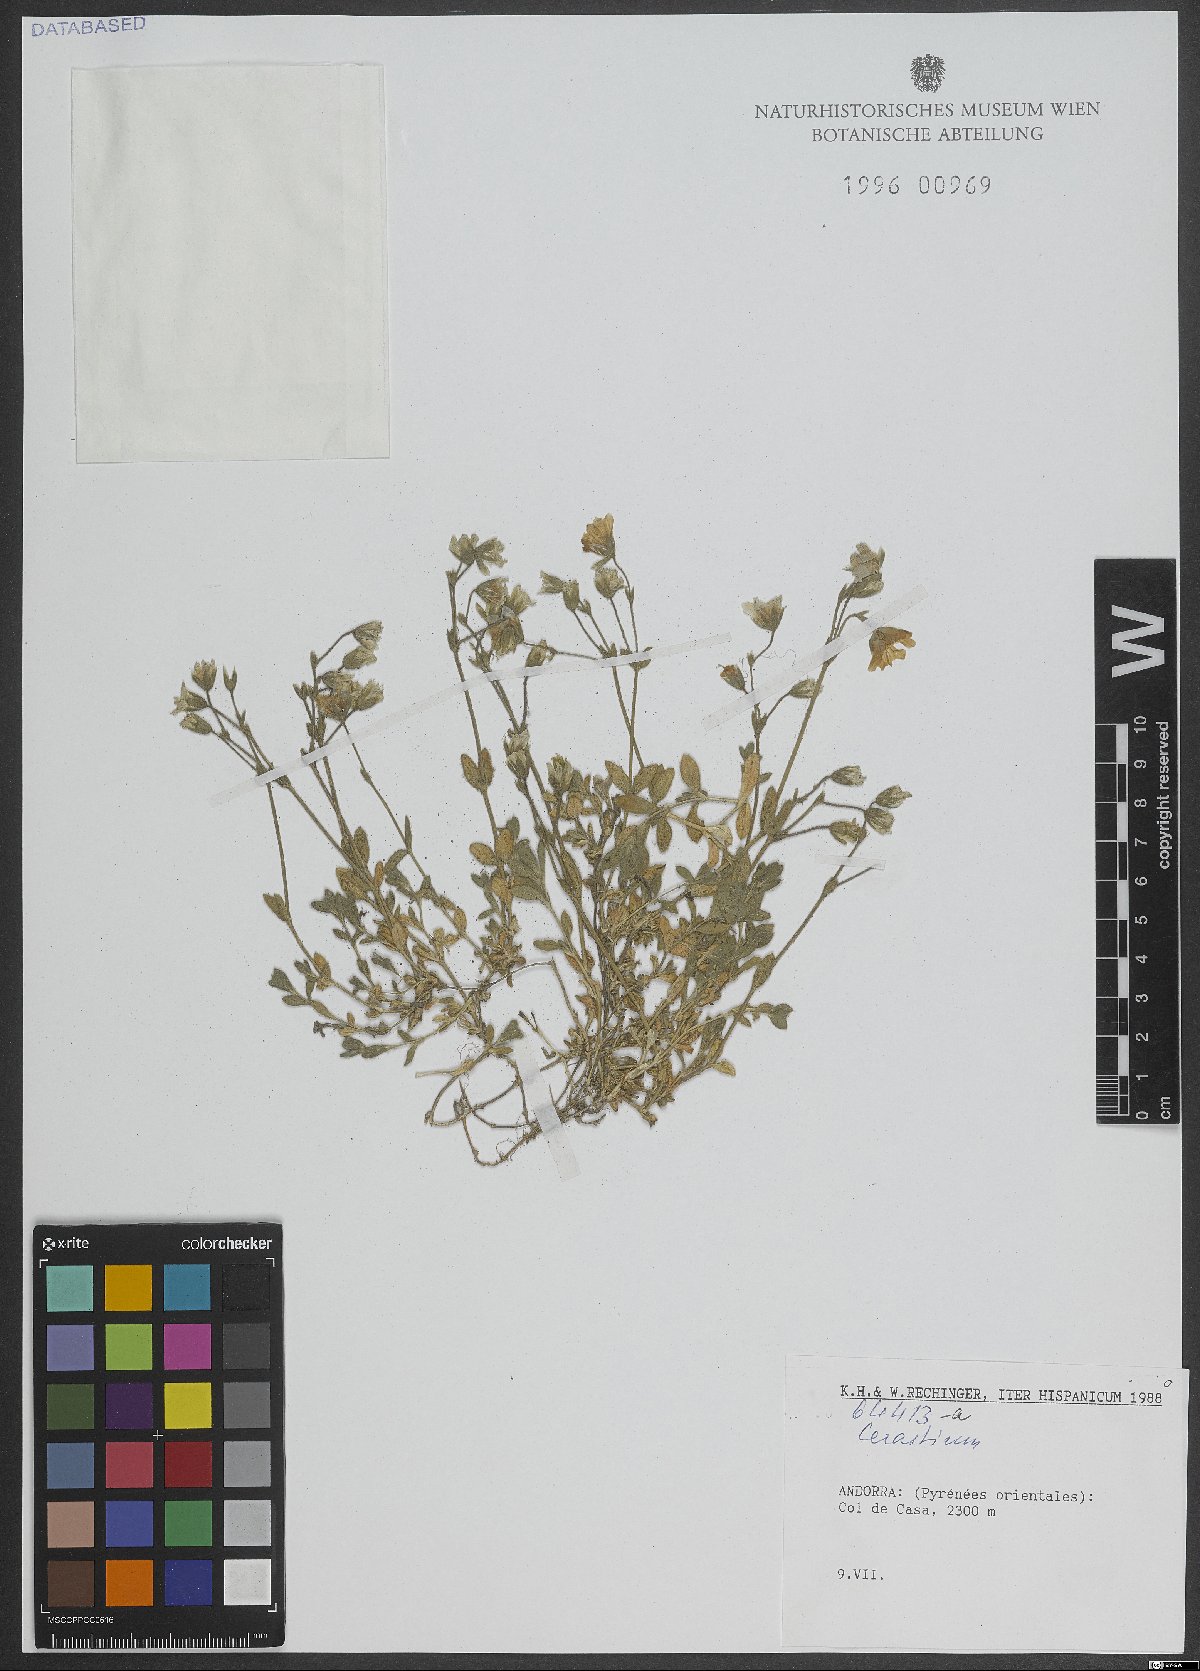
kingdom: Plantae
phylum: Tracheophyta
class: Magnoliopsida
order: Caryophyllales
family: Caryophyllaceae
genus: Cerastium
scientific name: Cerastium
